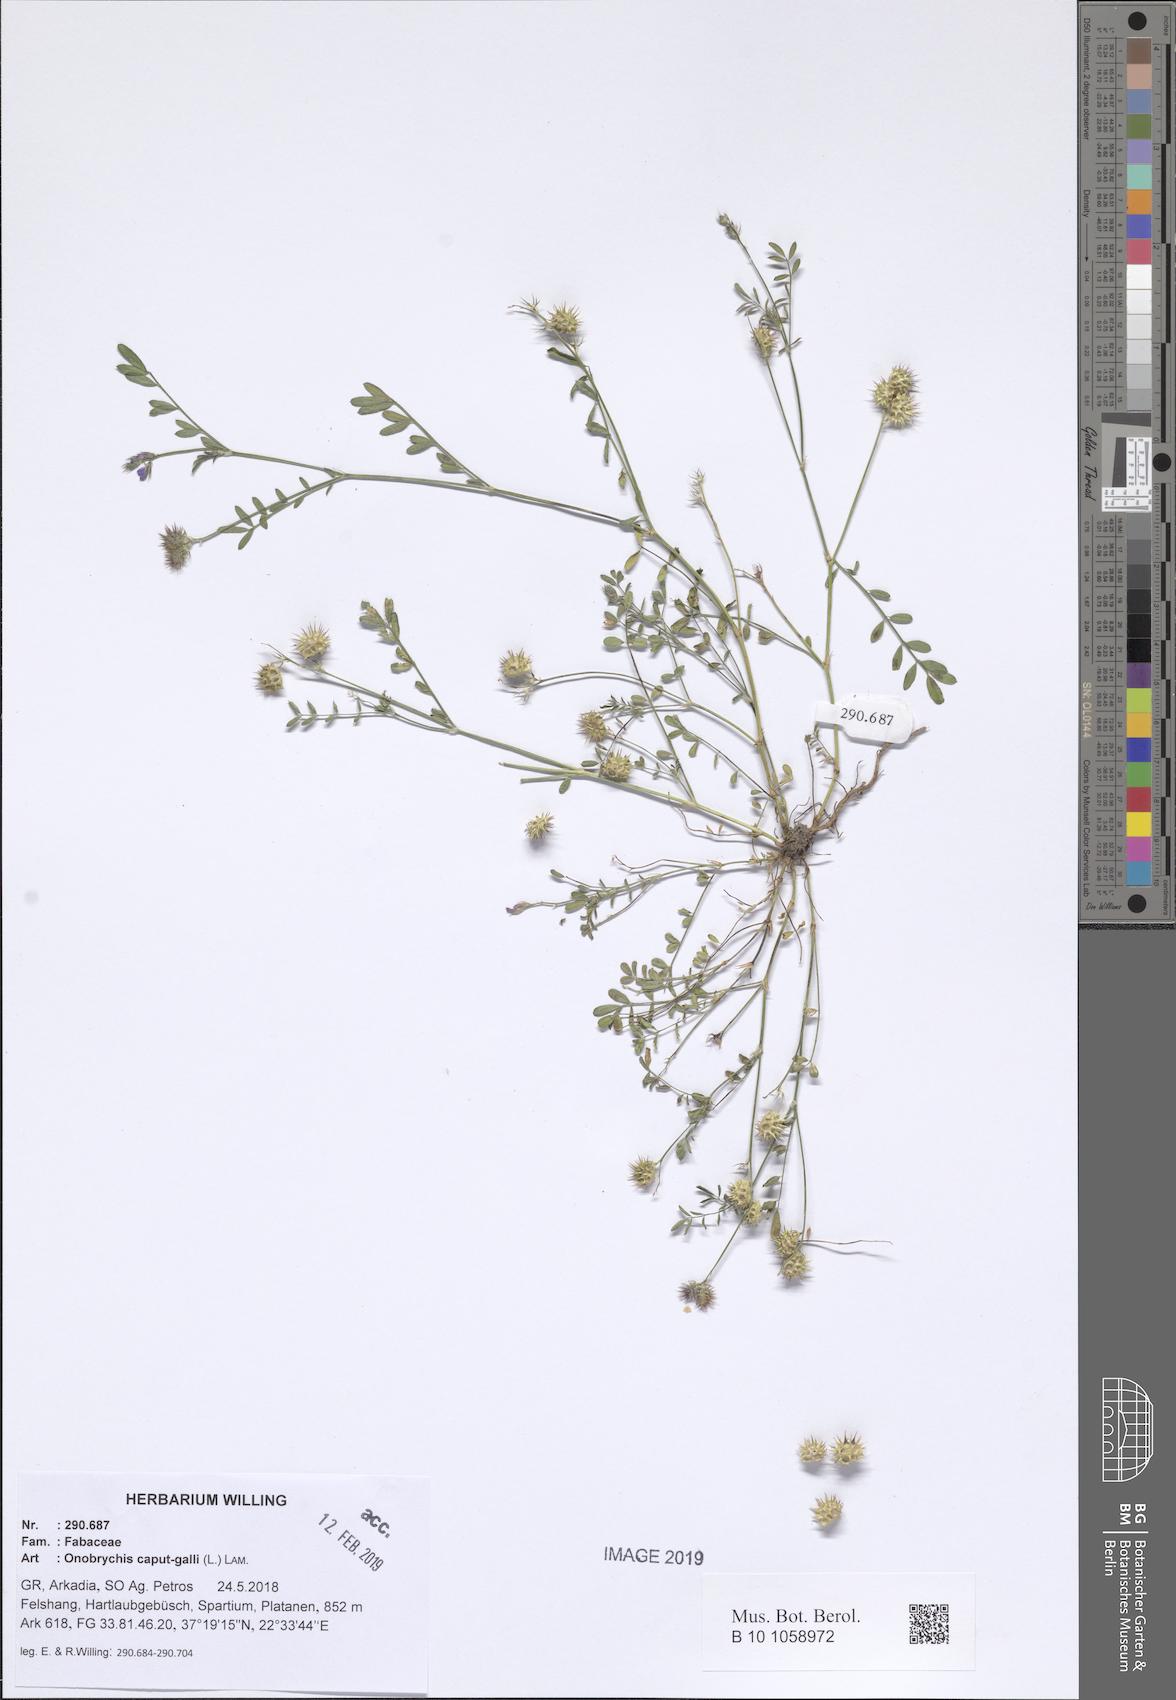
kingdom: Plantae
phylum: Tracheophyta
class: Magnoliopsida
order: Fabales
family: Fabaceae
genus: Onobrychis
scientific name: Onobrychis caput-galli
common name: Cockscomb sainfoin
